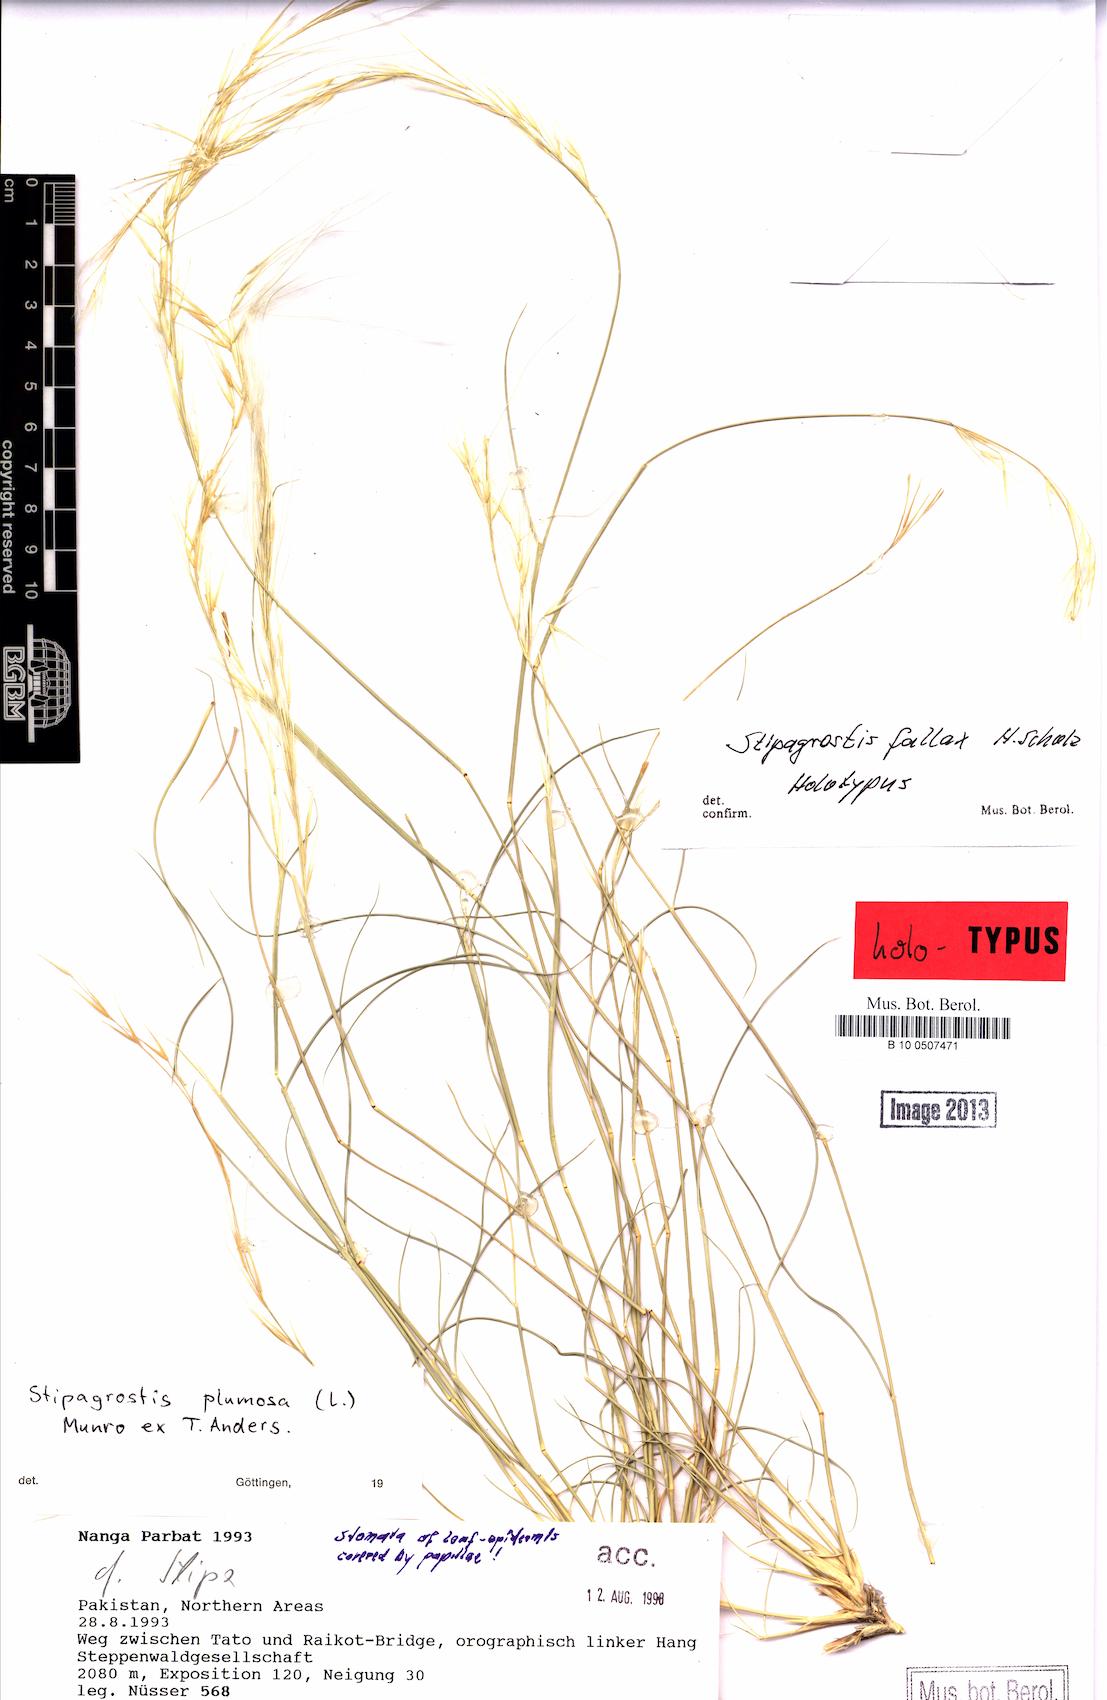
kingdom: Plantae
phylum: Tracheophyta
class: Liliopsida
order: Poales
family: Poaceae
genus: Stipagrostis
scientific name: Stipagrostis plumosa
